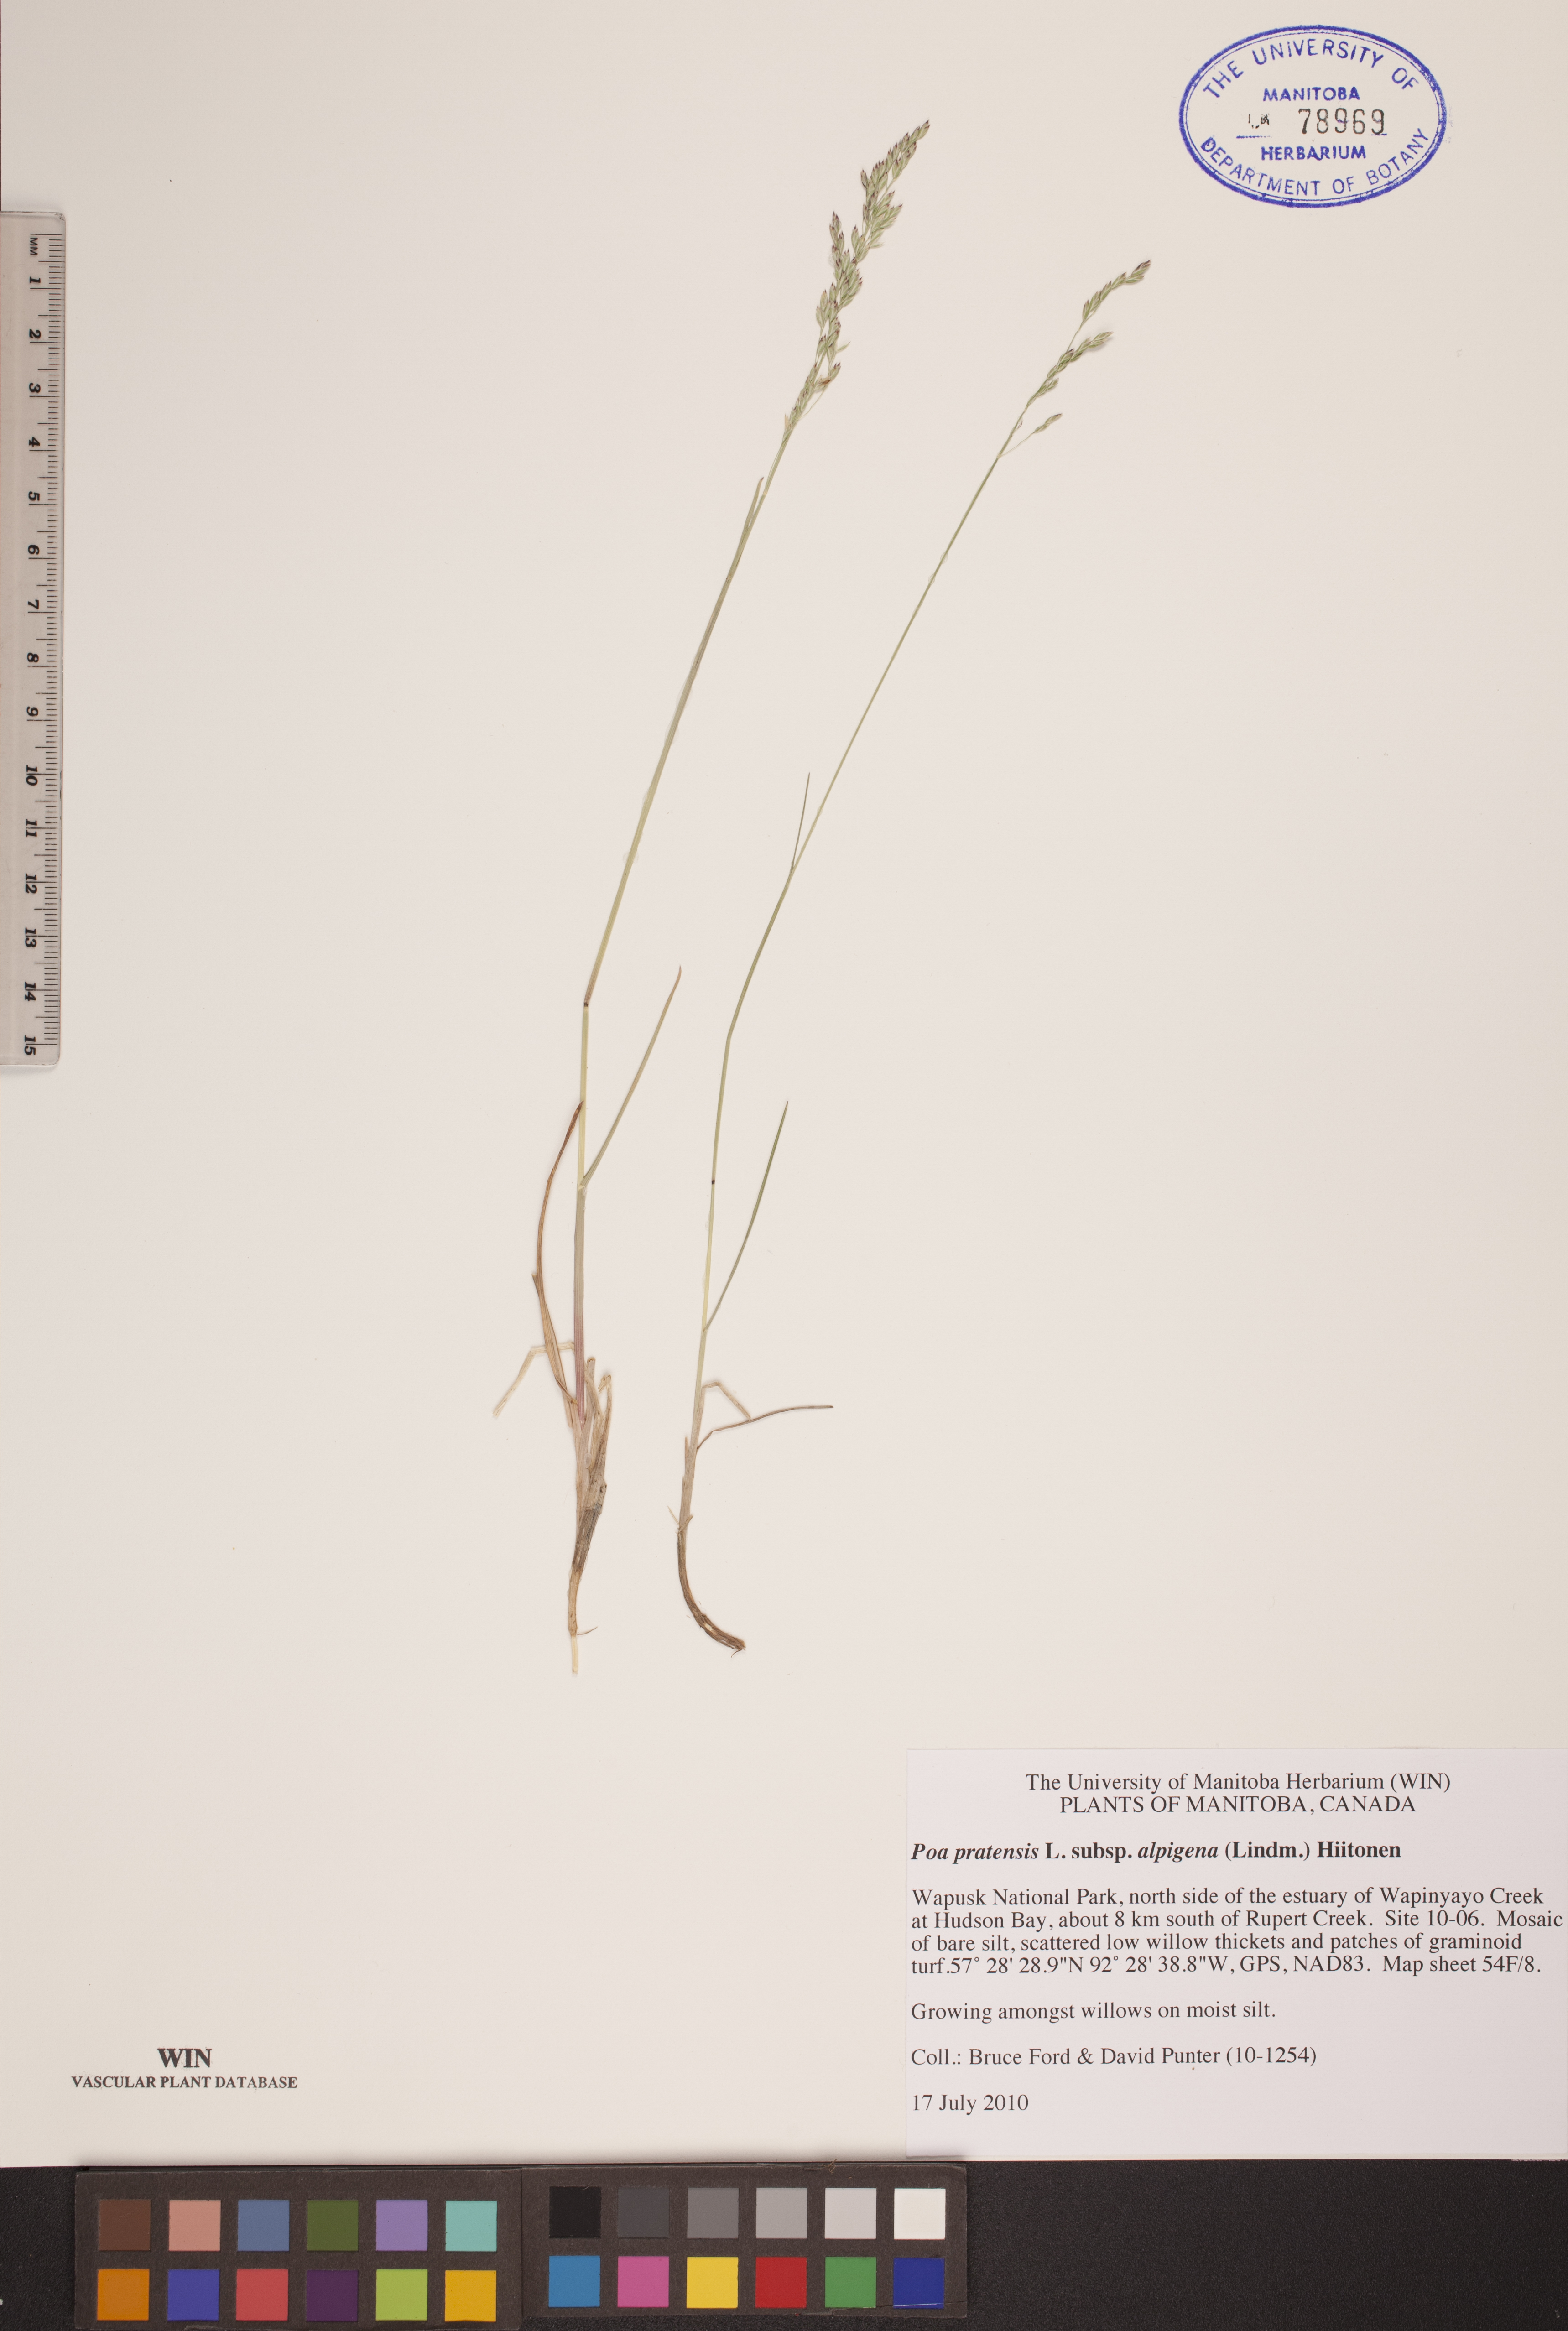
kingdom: Plantae
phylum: Tracheophyta
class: Liliopsida
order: Poales
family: Poaceae
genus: Poa
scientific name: Poa alpigena
